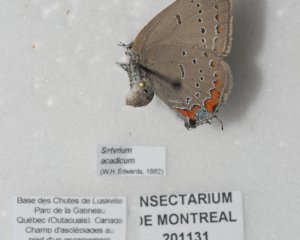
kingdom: Animalia
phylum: Arthropoda
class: Insecta
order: Lepidoptera
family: Lycaenidae
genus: Strymon
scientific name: Strymon acadica
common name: Acadian Hairstreak
